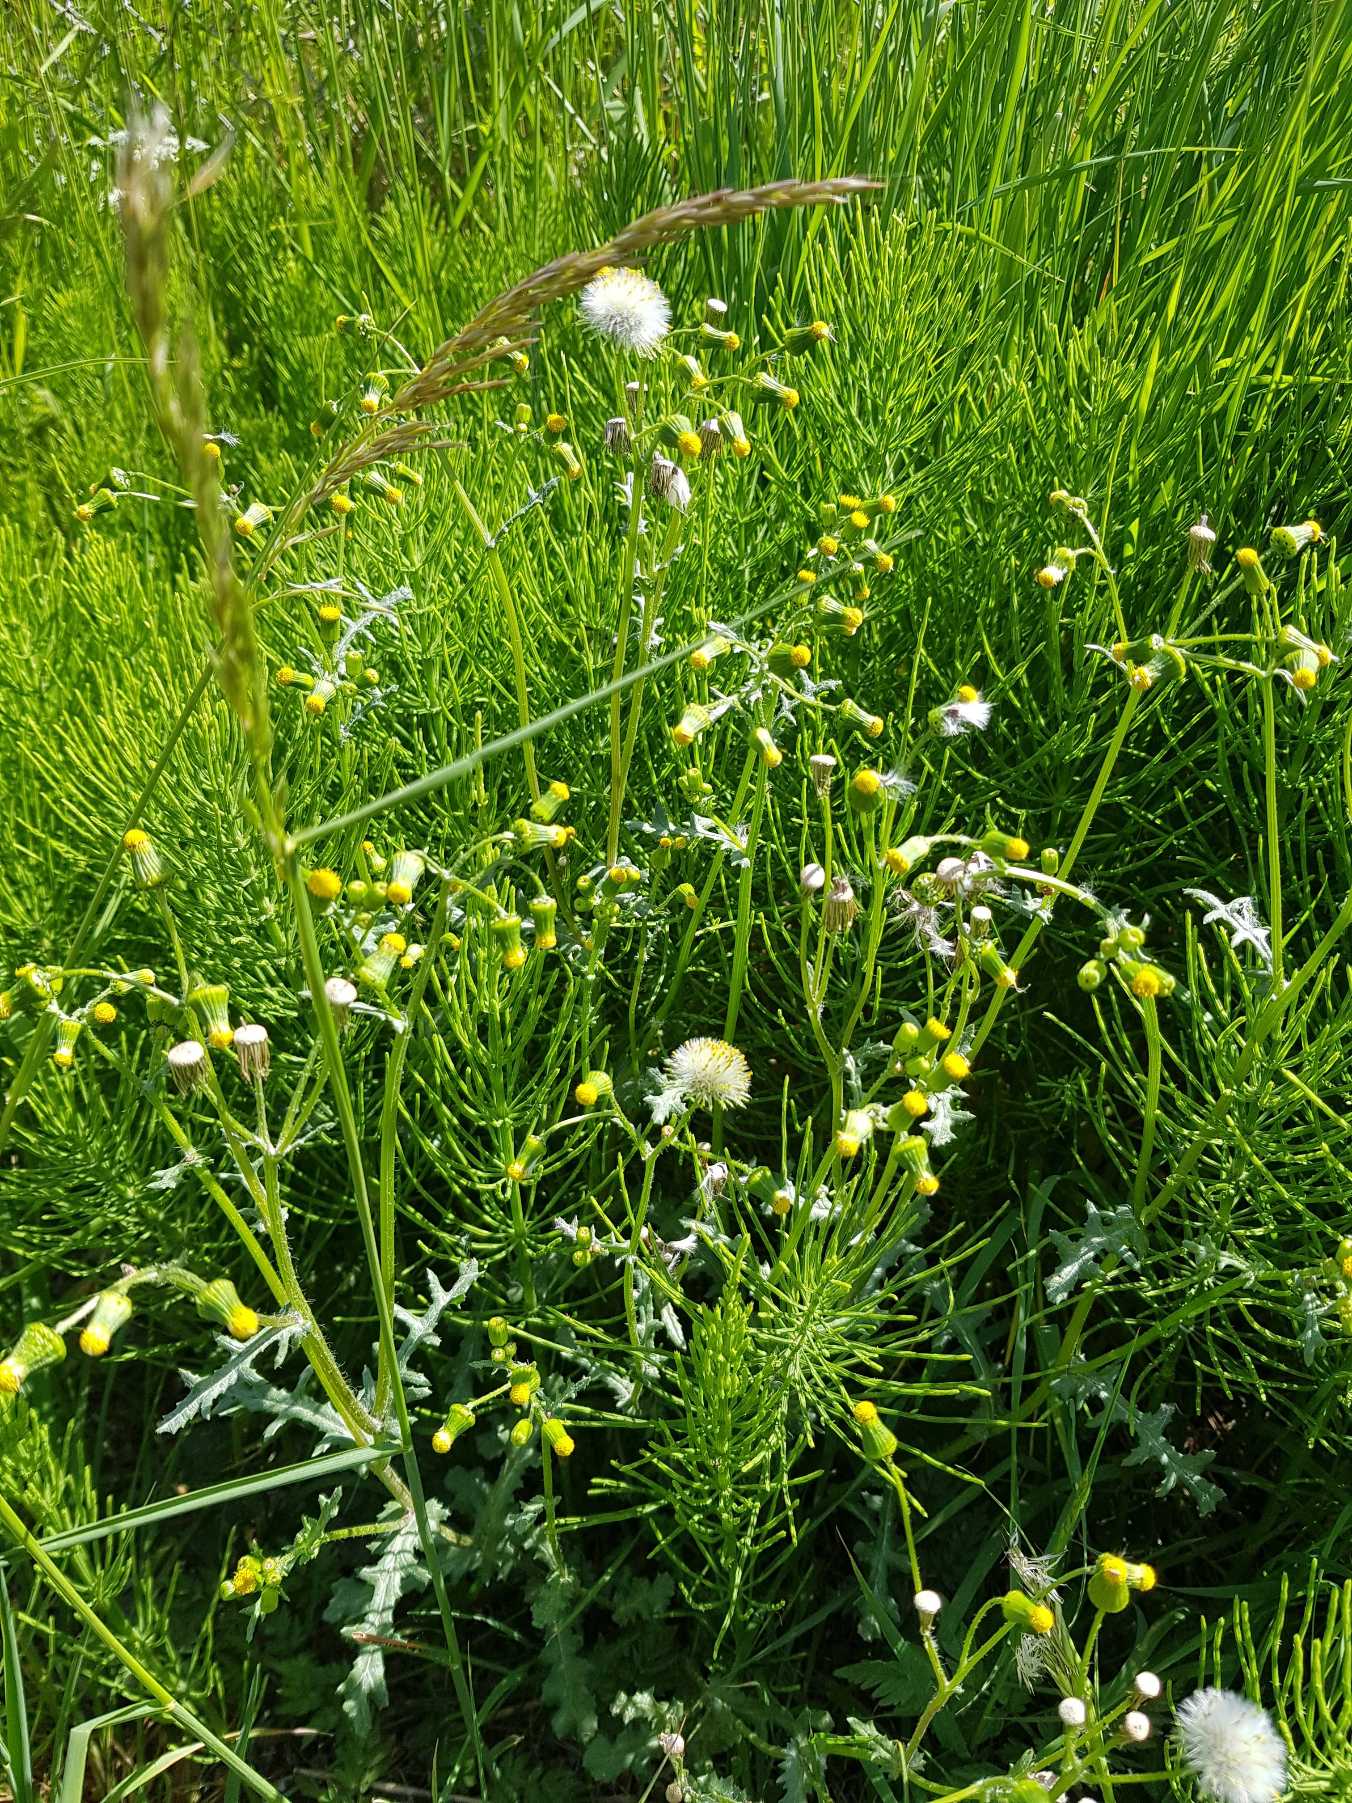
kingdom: Plantae
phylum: Tracheophyta
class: Magnoliopsida
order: Asterales
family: Asteraceae
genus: Senecio
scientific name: Senecio vulgaris
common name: Almindelig brandbæger
